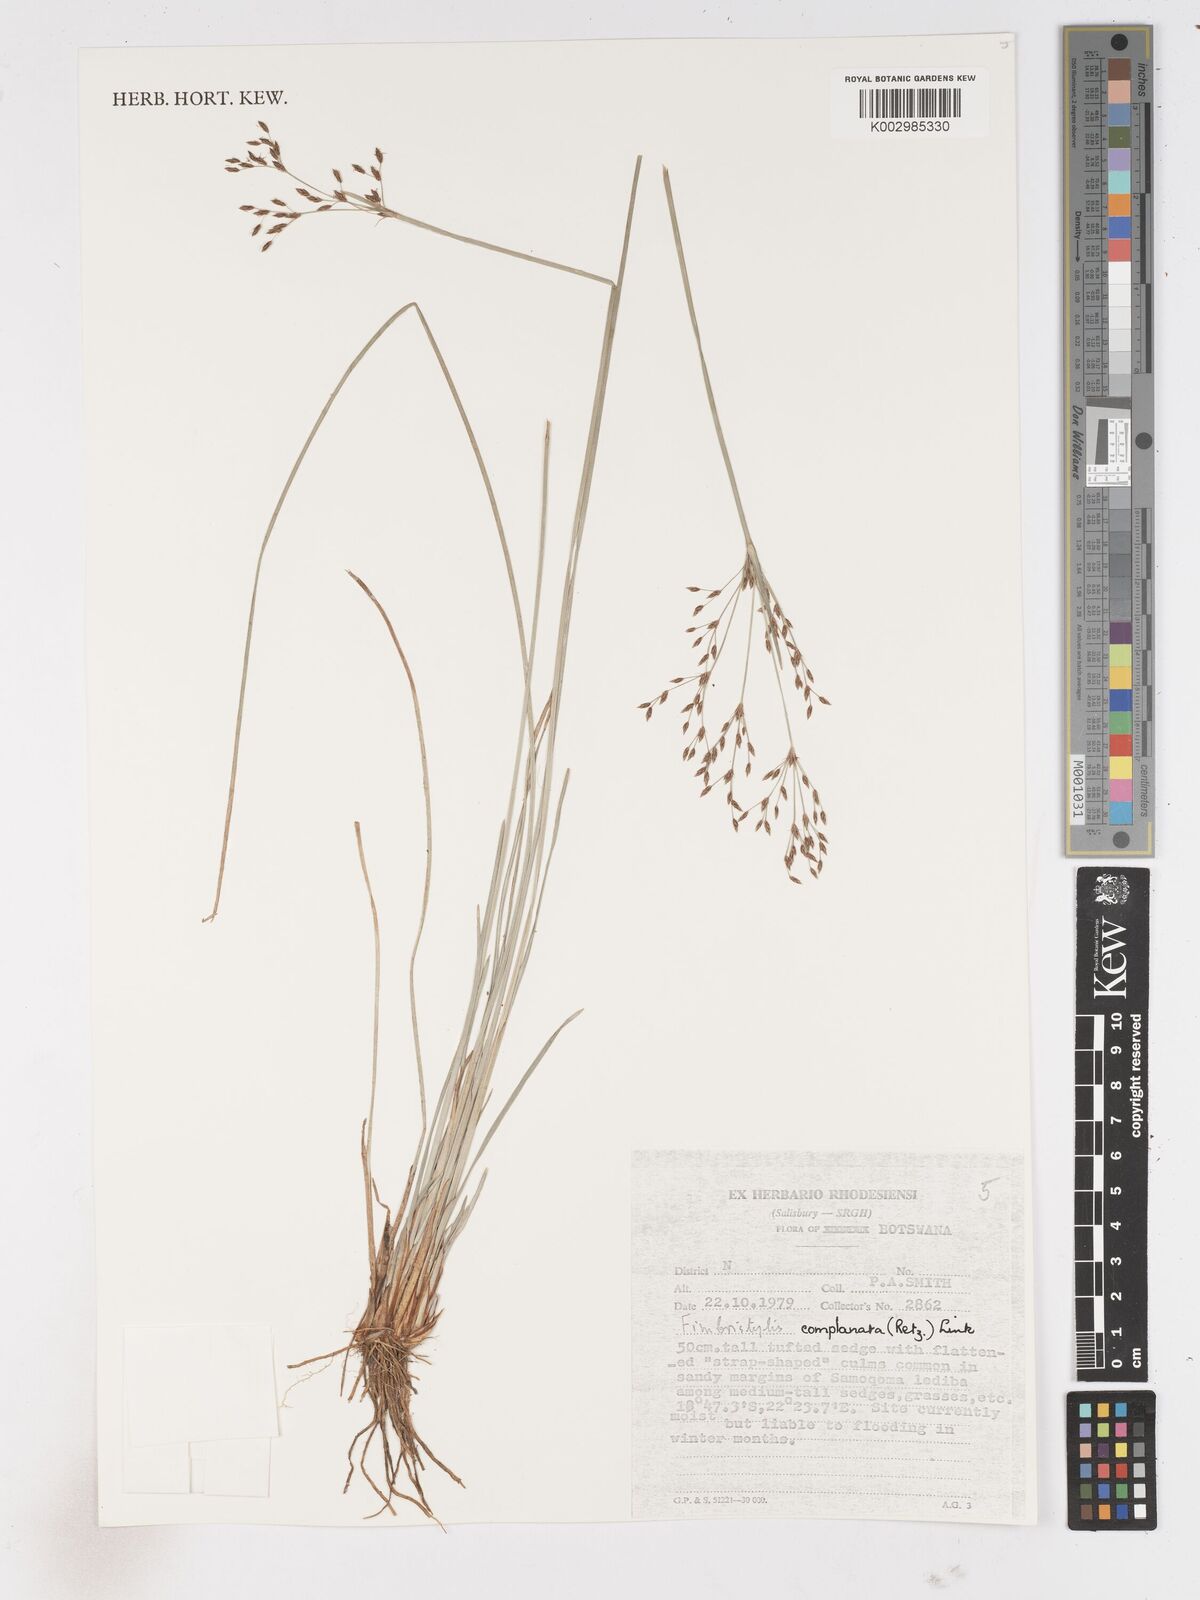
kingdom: Plantae
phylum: Tracheophyta
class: Liliopsida
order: Poales
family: Cyperaceae
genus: Fimbristylis
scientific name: Fimbristylis complanata
